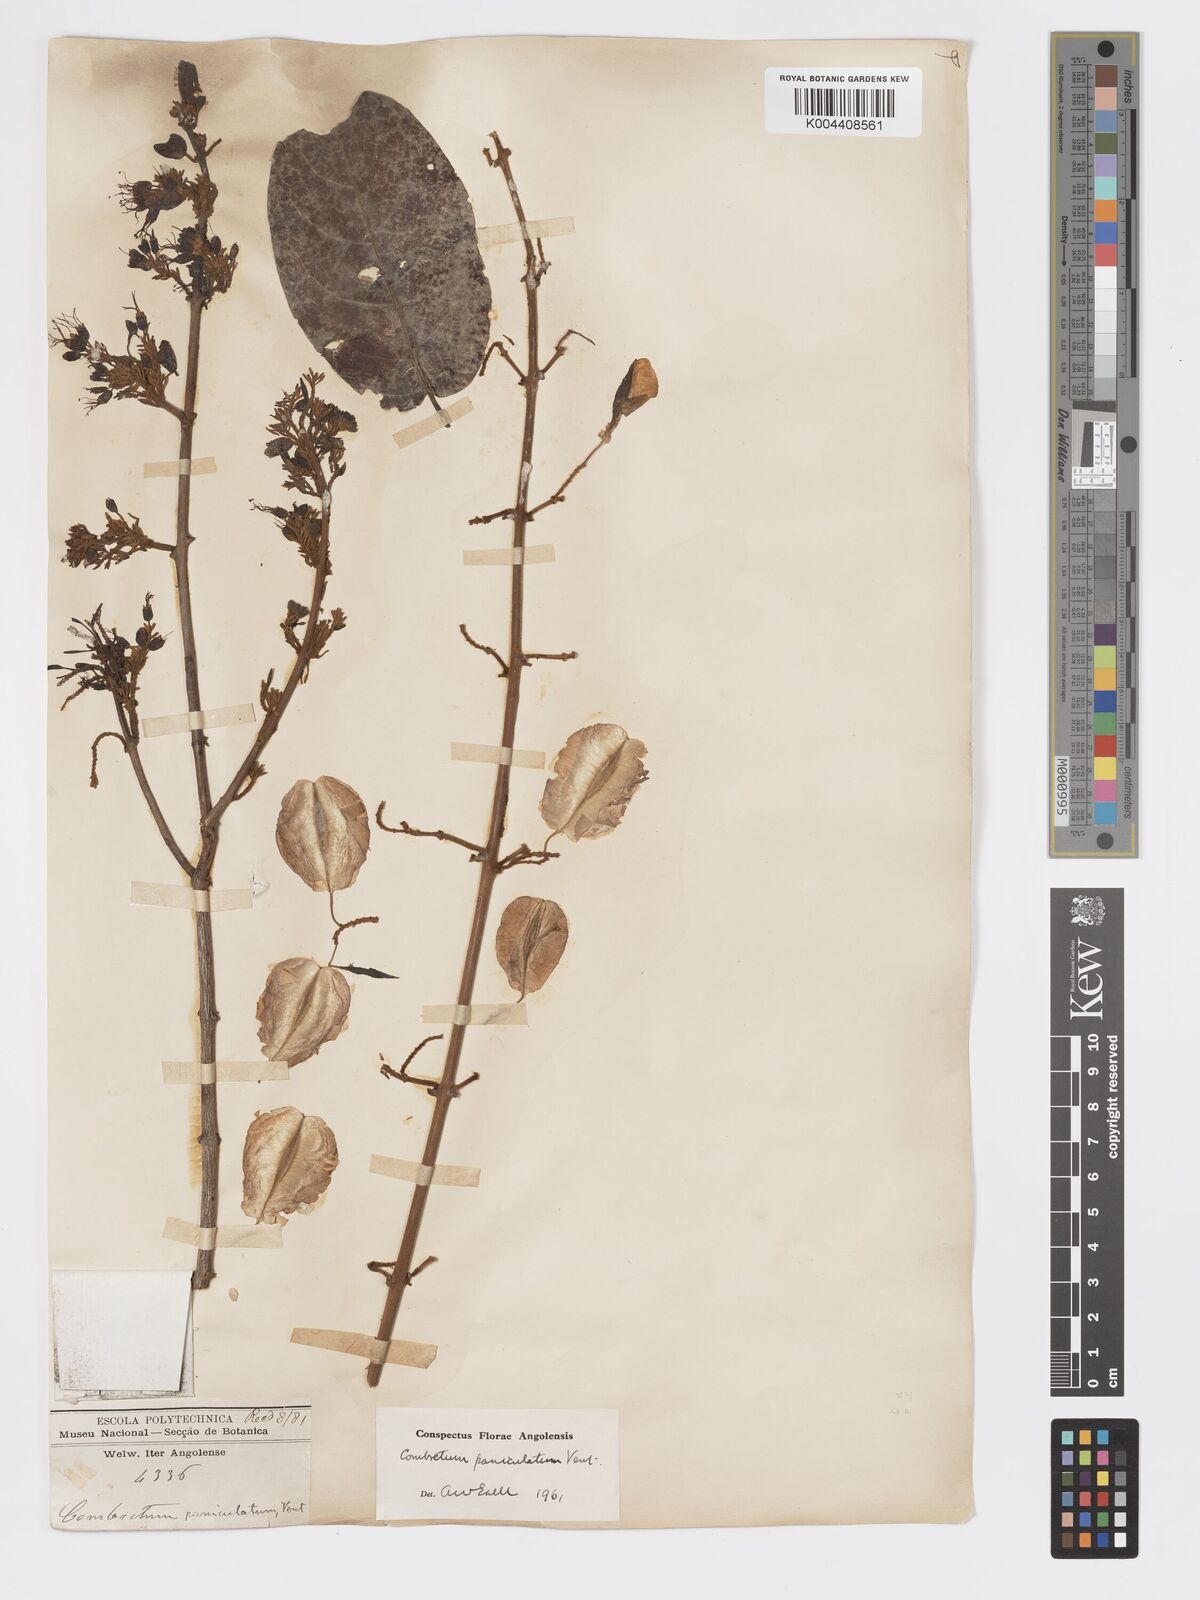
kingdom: Plantae
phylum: Tracheophyta
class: Magnoliopsida
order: Myrtales
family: Combretaceae
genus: Combretum
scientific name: Combretum paniculatum
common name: Fire vine
